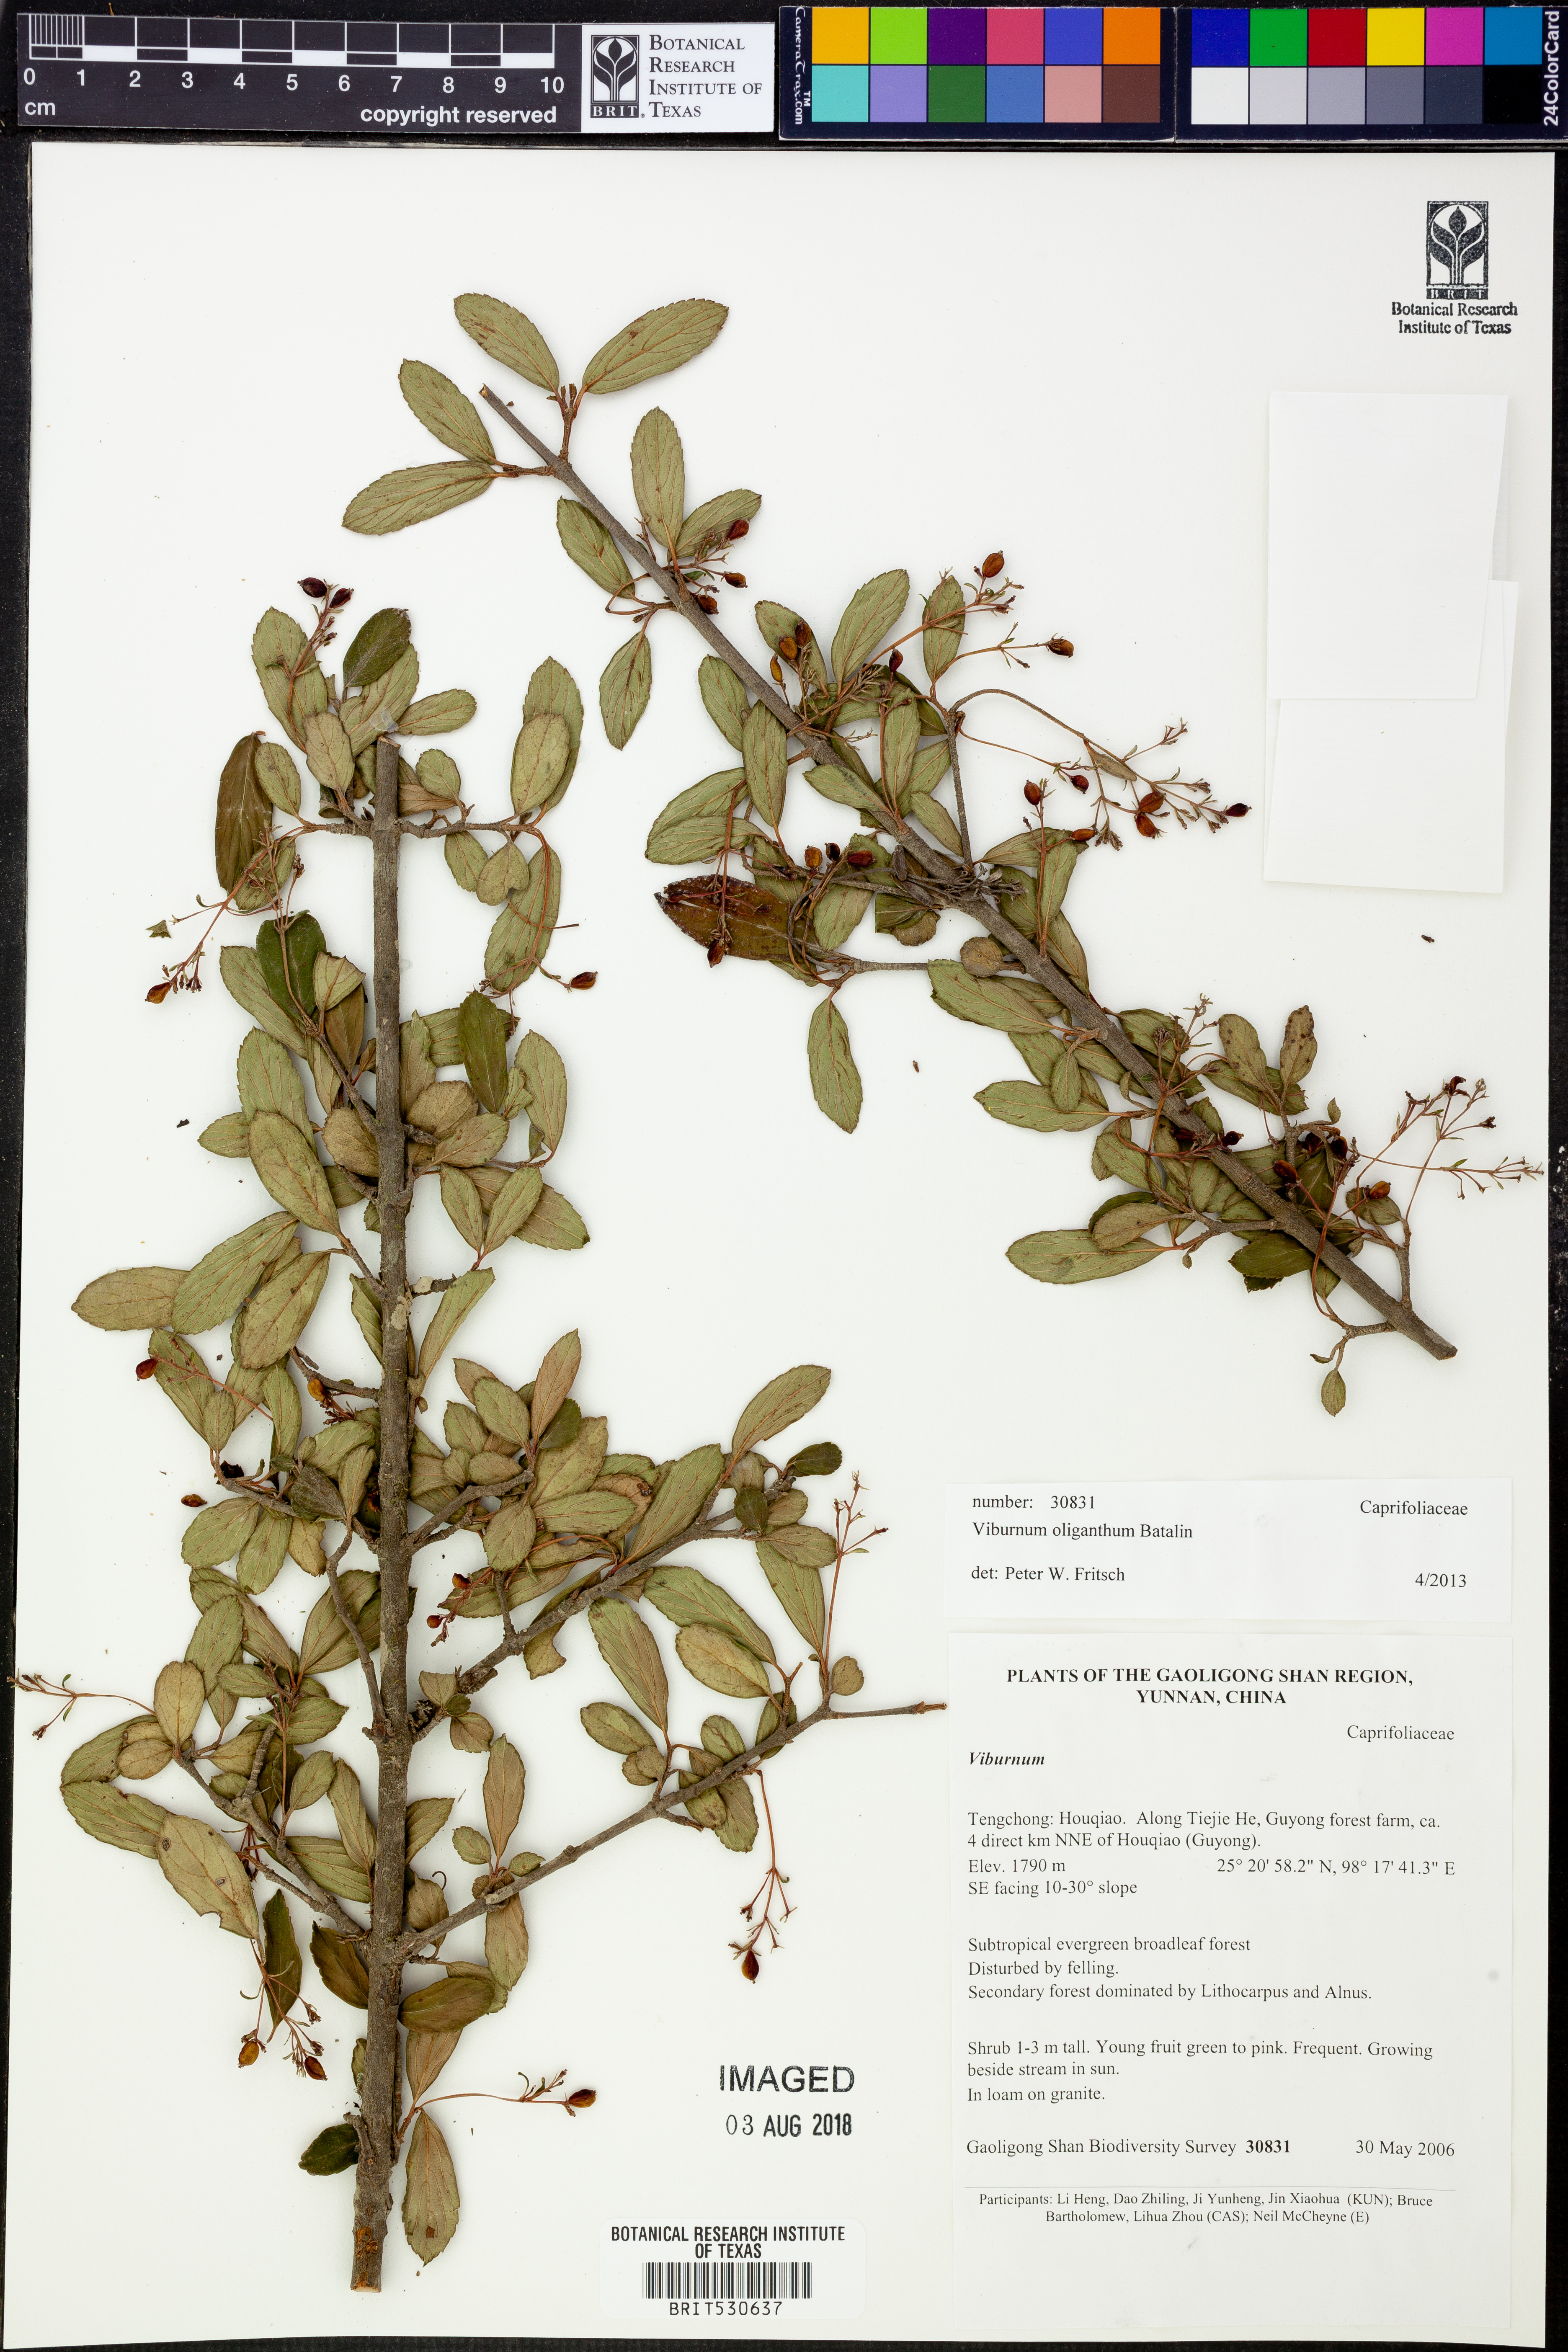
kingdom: Plantae
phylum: Tracheophyta
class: Magnoliopsida
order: Dipsacales
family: Viburnaceae
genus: Viburnum
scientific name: Viburnum oliganthum
